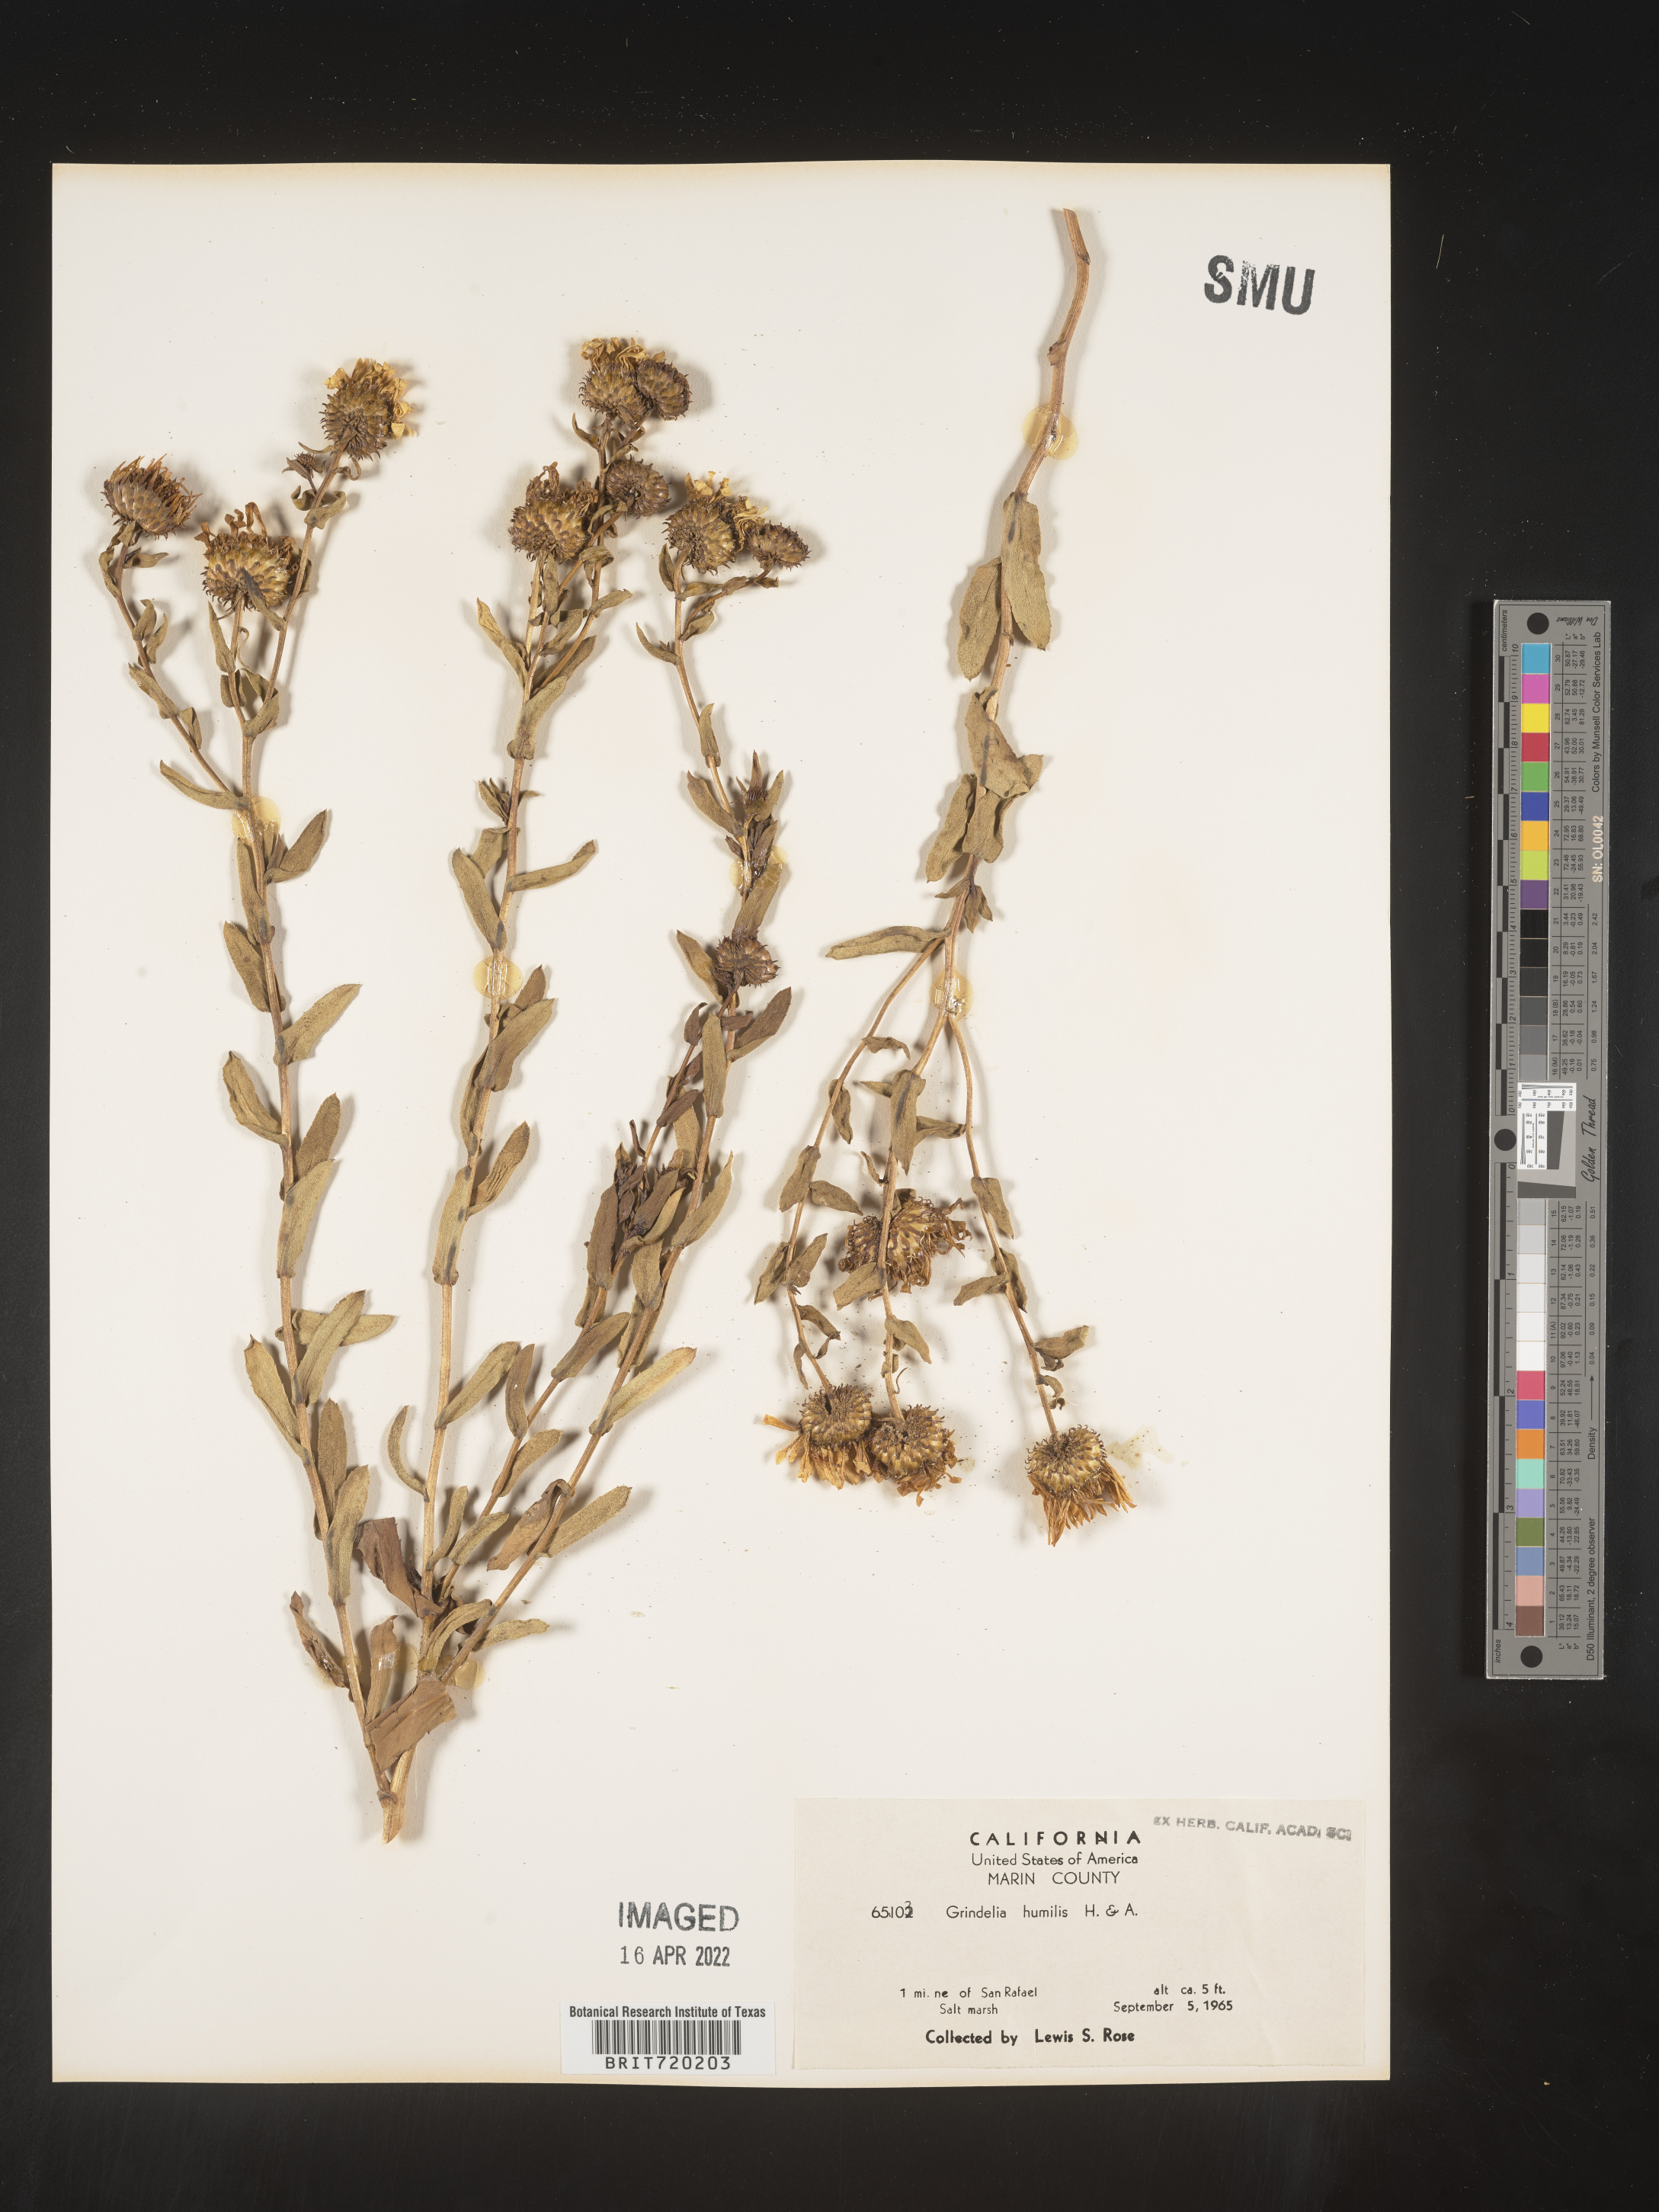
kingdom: Plantae
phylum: Tracheophyta
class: Magnoliopsida
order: Asterales
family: Asteraceae
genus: Grindelia
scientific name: Grindelia hirsutula
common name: Hairy gumweed
